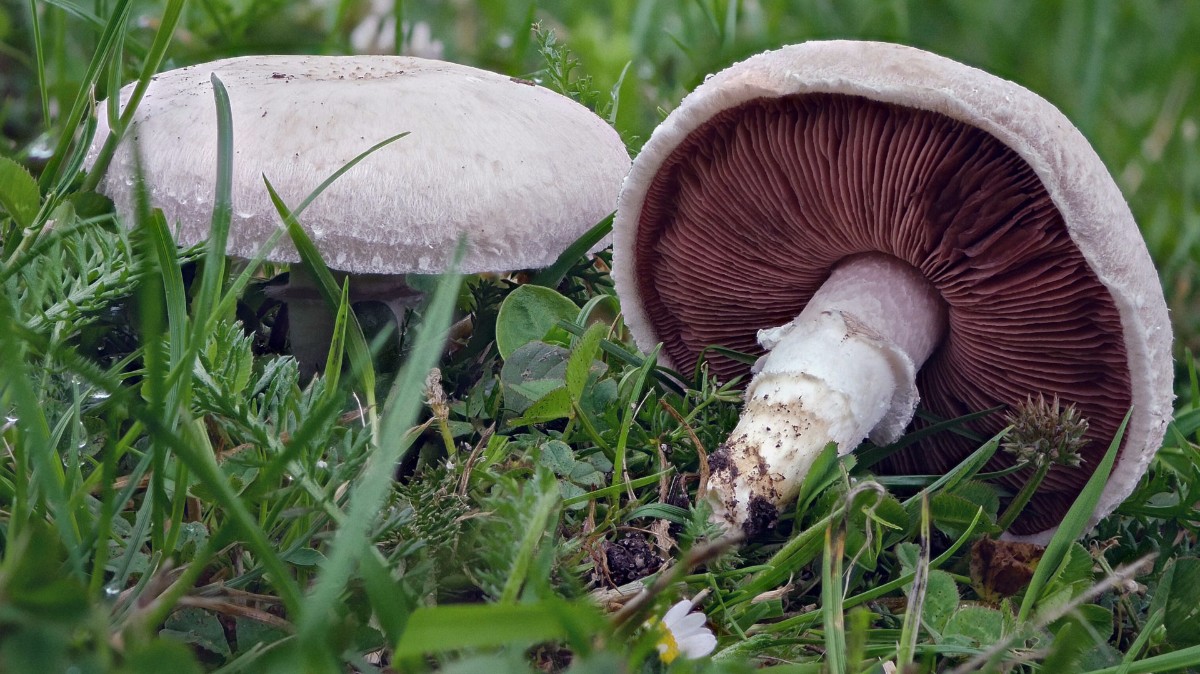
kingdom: Fungi
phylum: Basidiomycota
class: Agaricomycetes
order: Agaricales
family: Agaricaceae
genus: Agaricus
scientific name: Agaricus campestris
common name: mark-champignon
